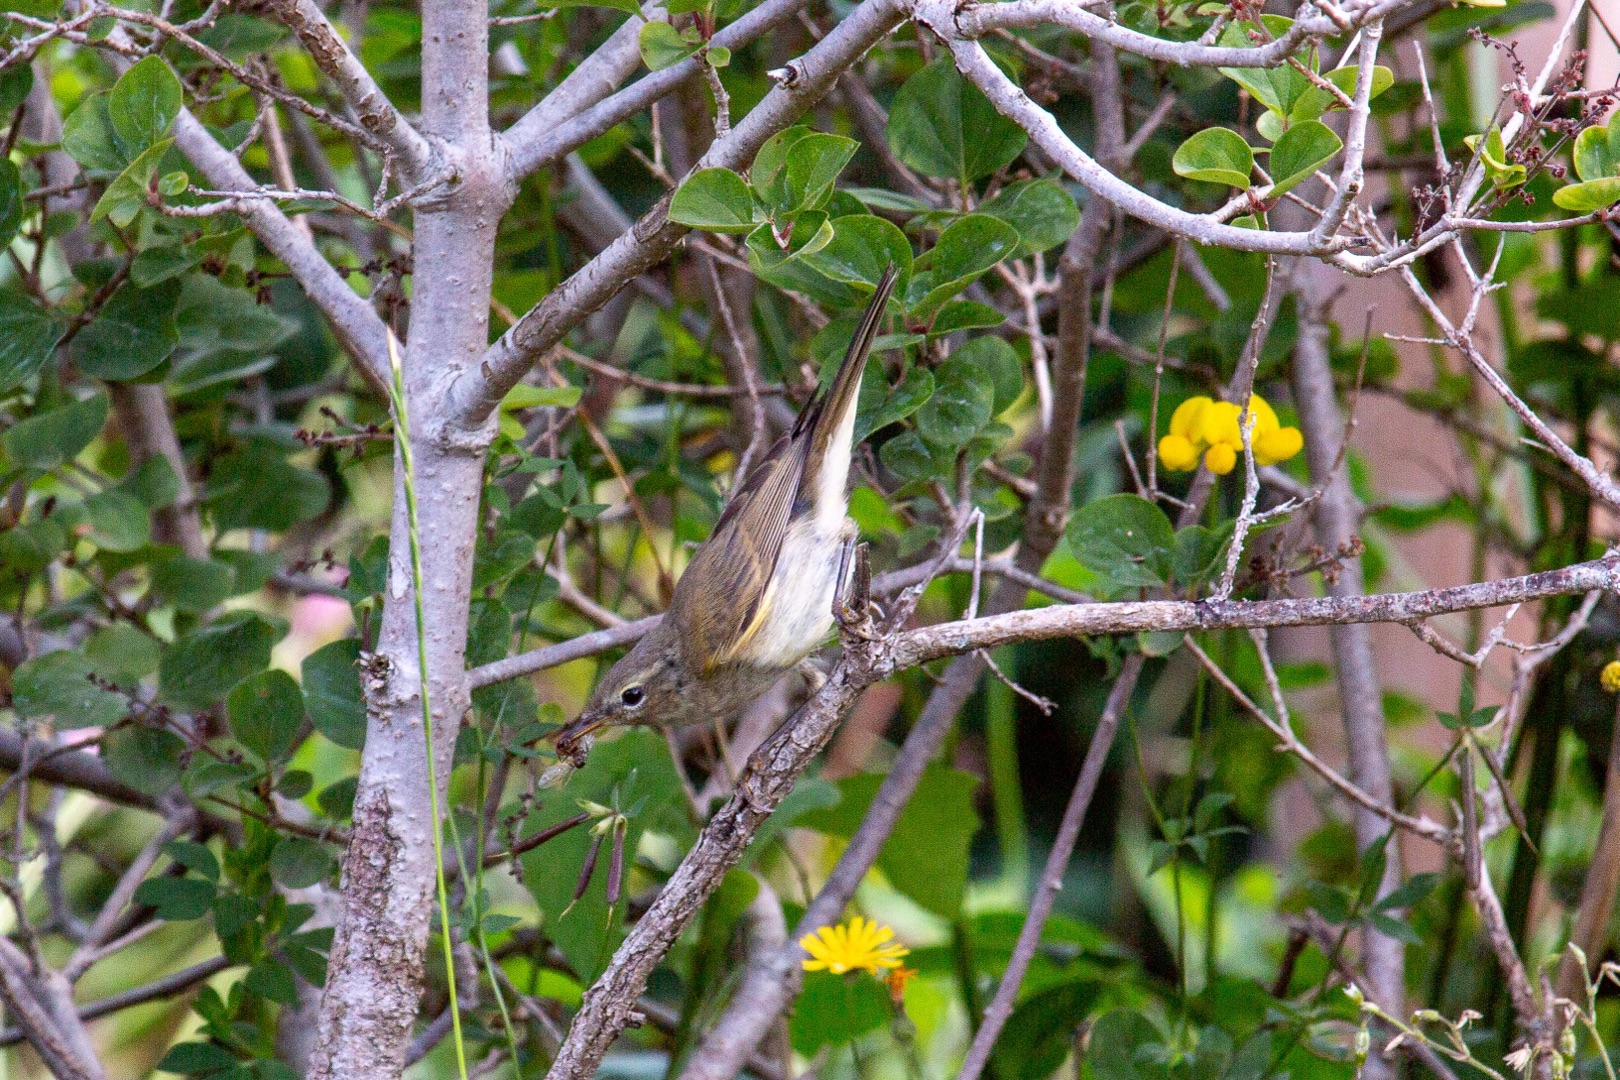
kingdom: Animalia
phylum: Chordata
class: Aves
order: Passeriformes
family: Phylloscopidae
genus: Phylloscopus
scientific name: Phylloscopus collybita
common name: Gransanger
